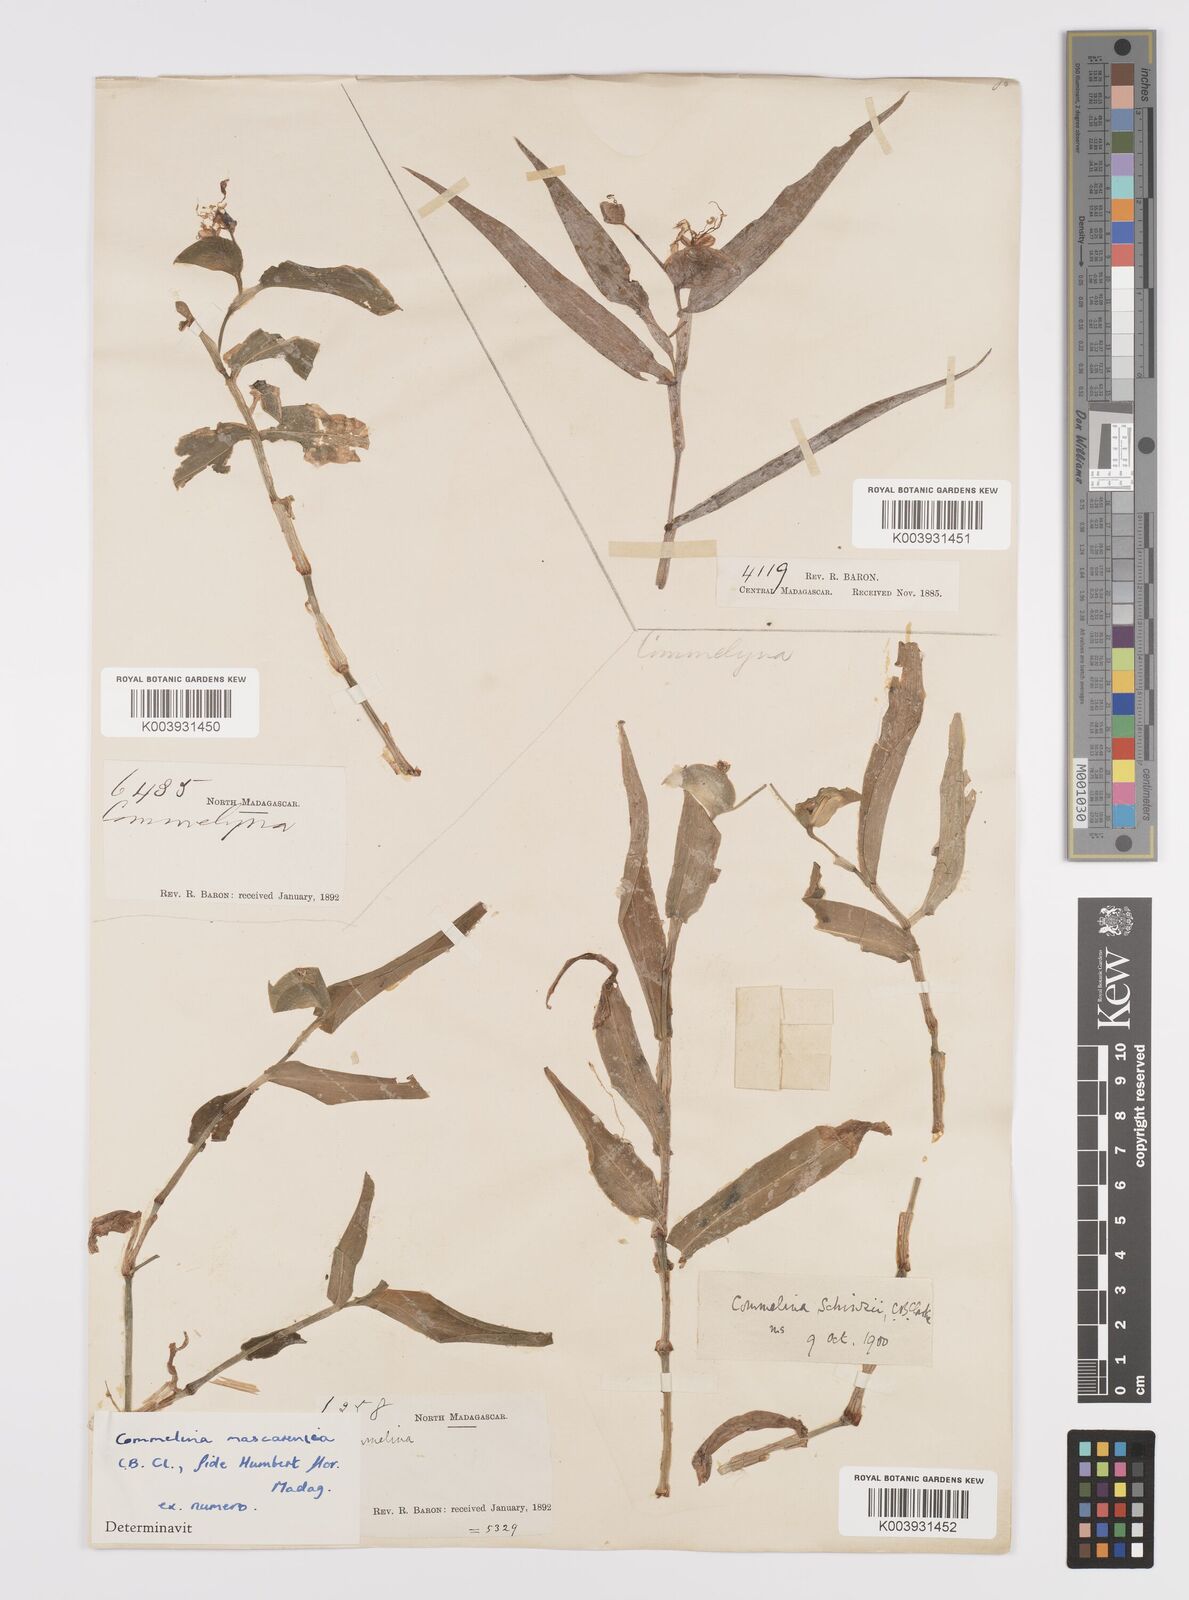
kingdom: Plantae
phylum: Tracheophyta
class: Liliopsida
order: Commelinales
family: Commelinaceae
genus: Commelina
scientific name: Commelina mascarenica
